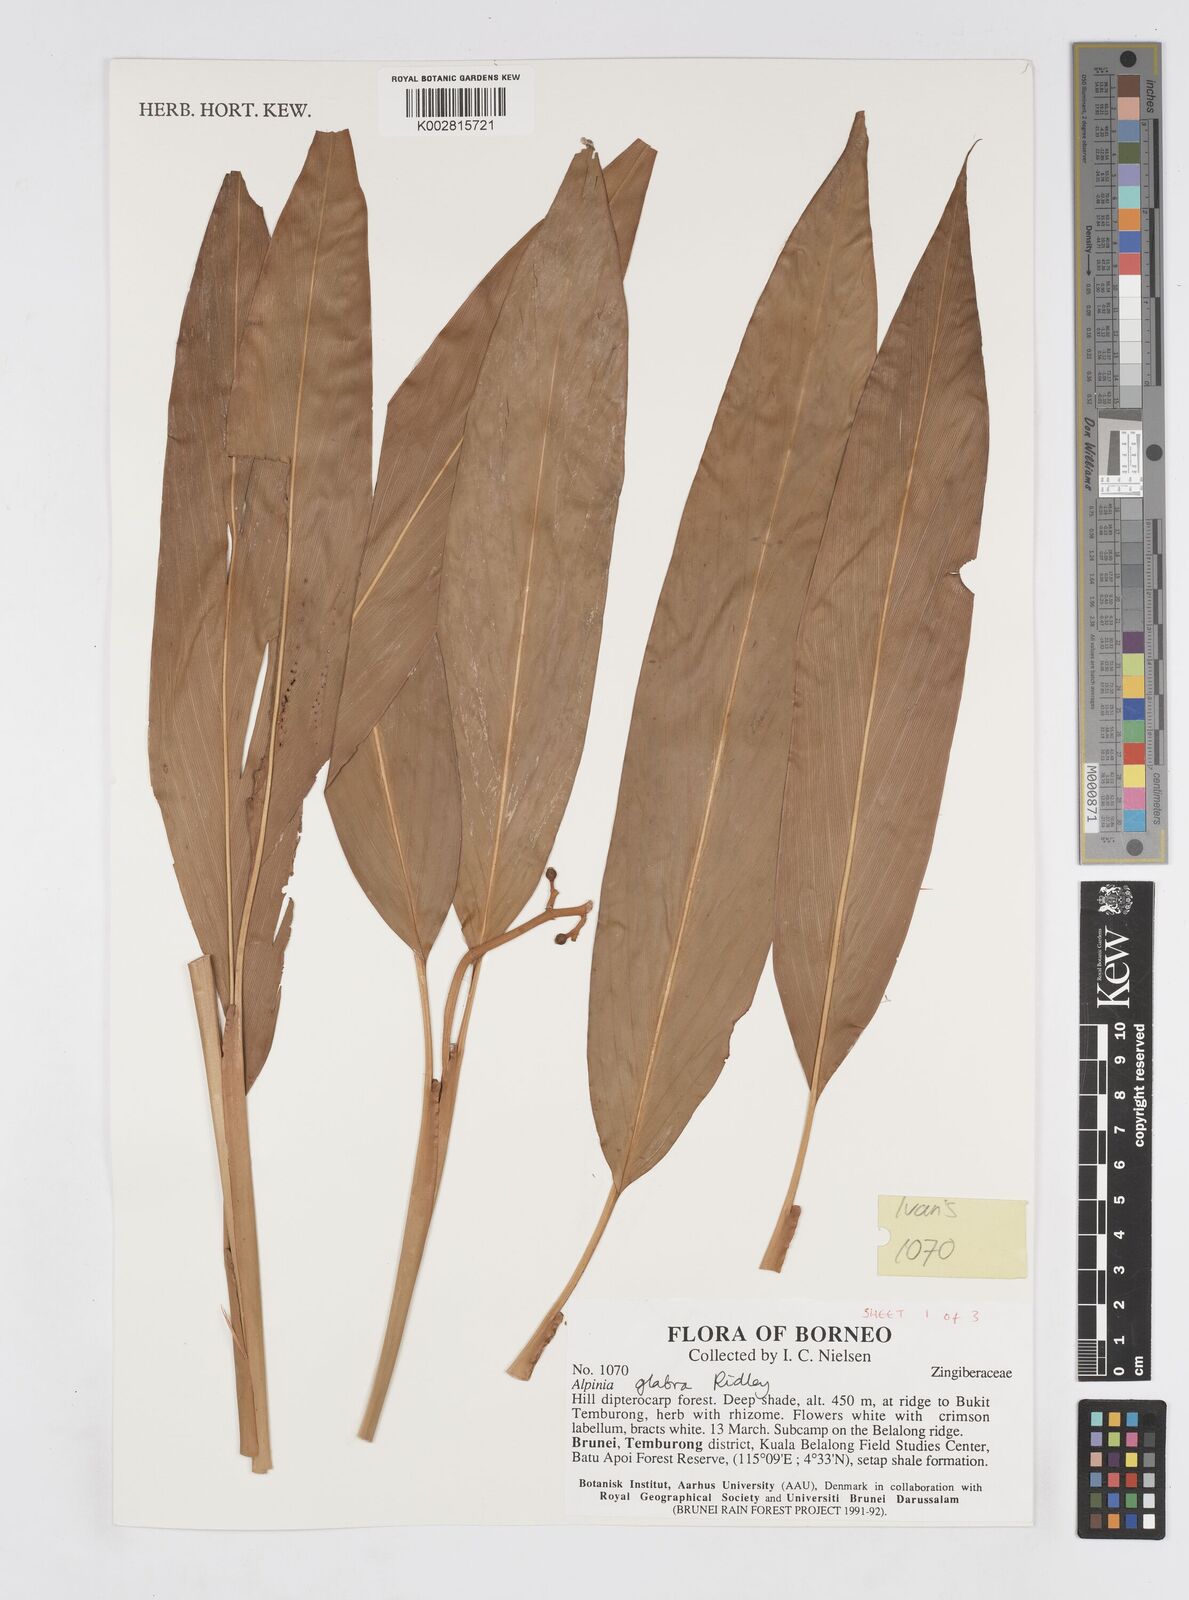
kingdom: Plantae
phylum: Tracheophyta
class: Liliopsida
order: Zingiberales
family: Zingiberaceae
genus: Alpinia
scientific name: Alpinia glabra
